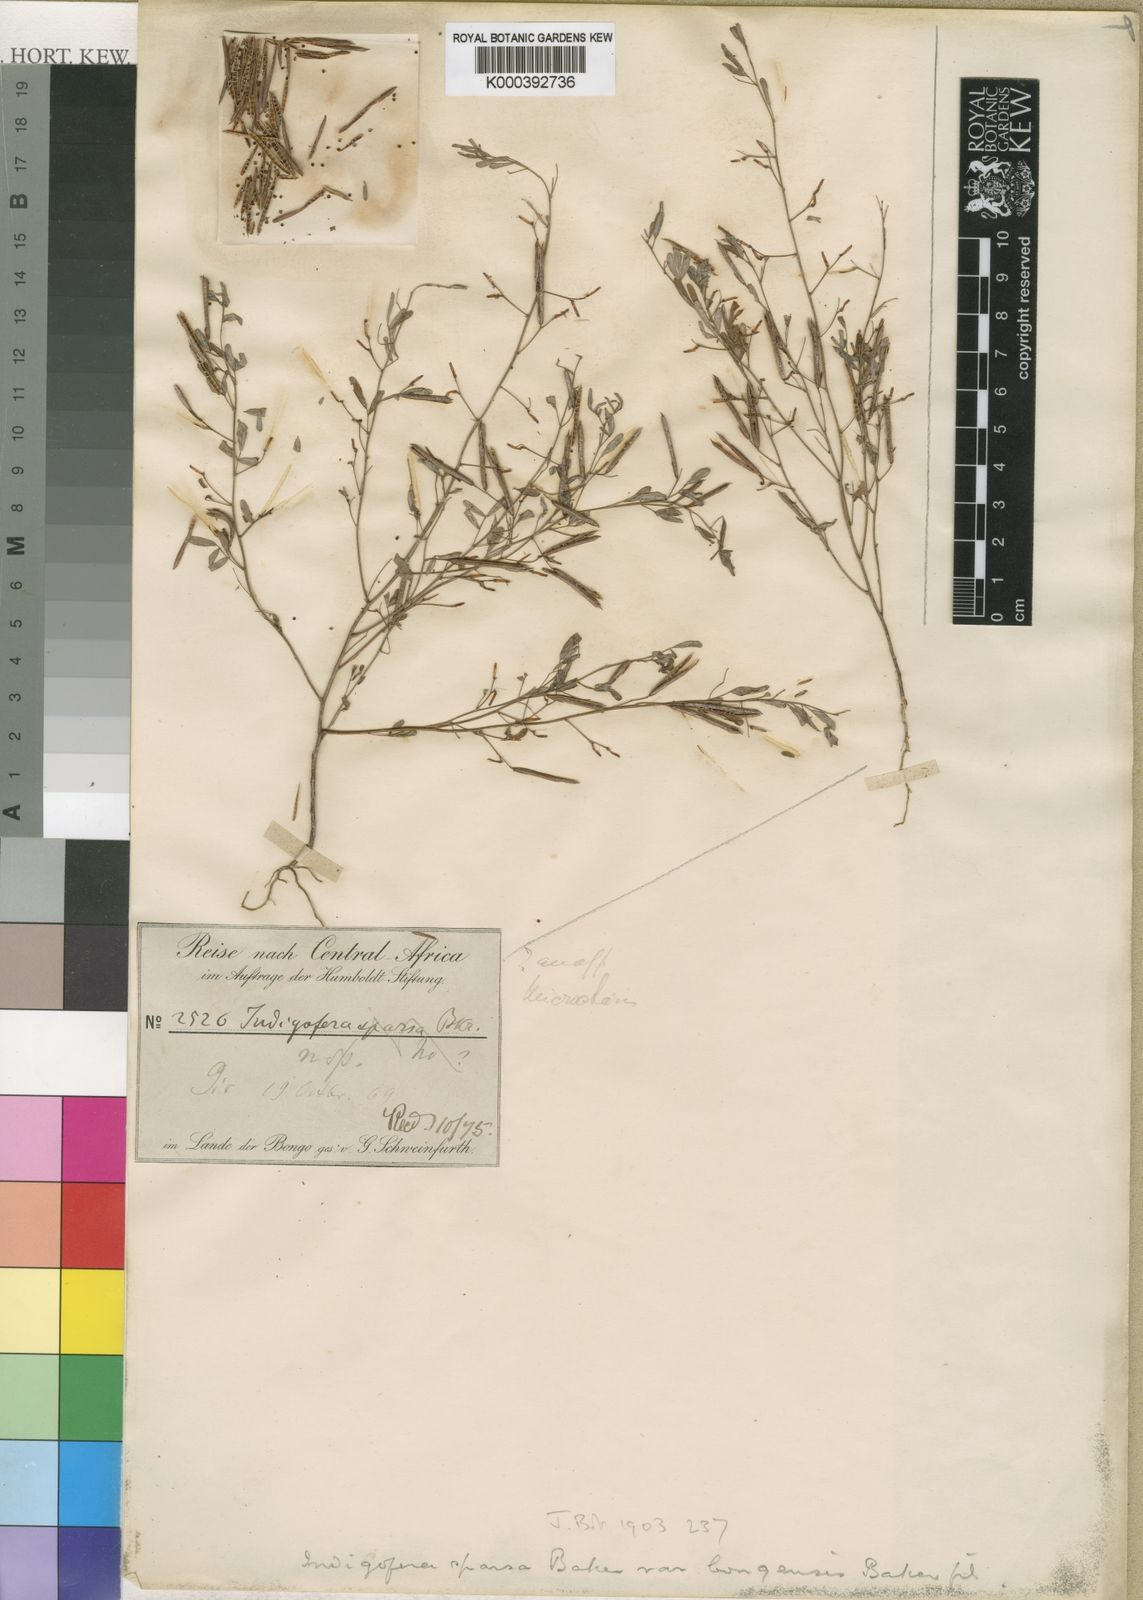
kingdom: Plantae
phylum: Tracheophyta
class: Magnoliopsida
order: Fabales
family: Fabaceae
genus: Indigofera
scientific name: Indigofera
